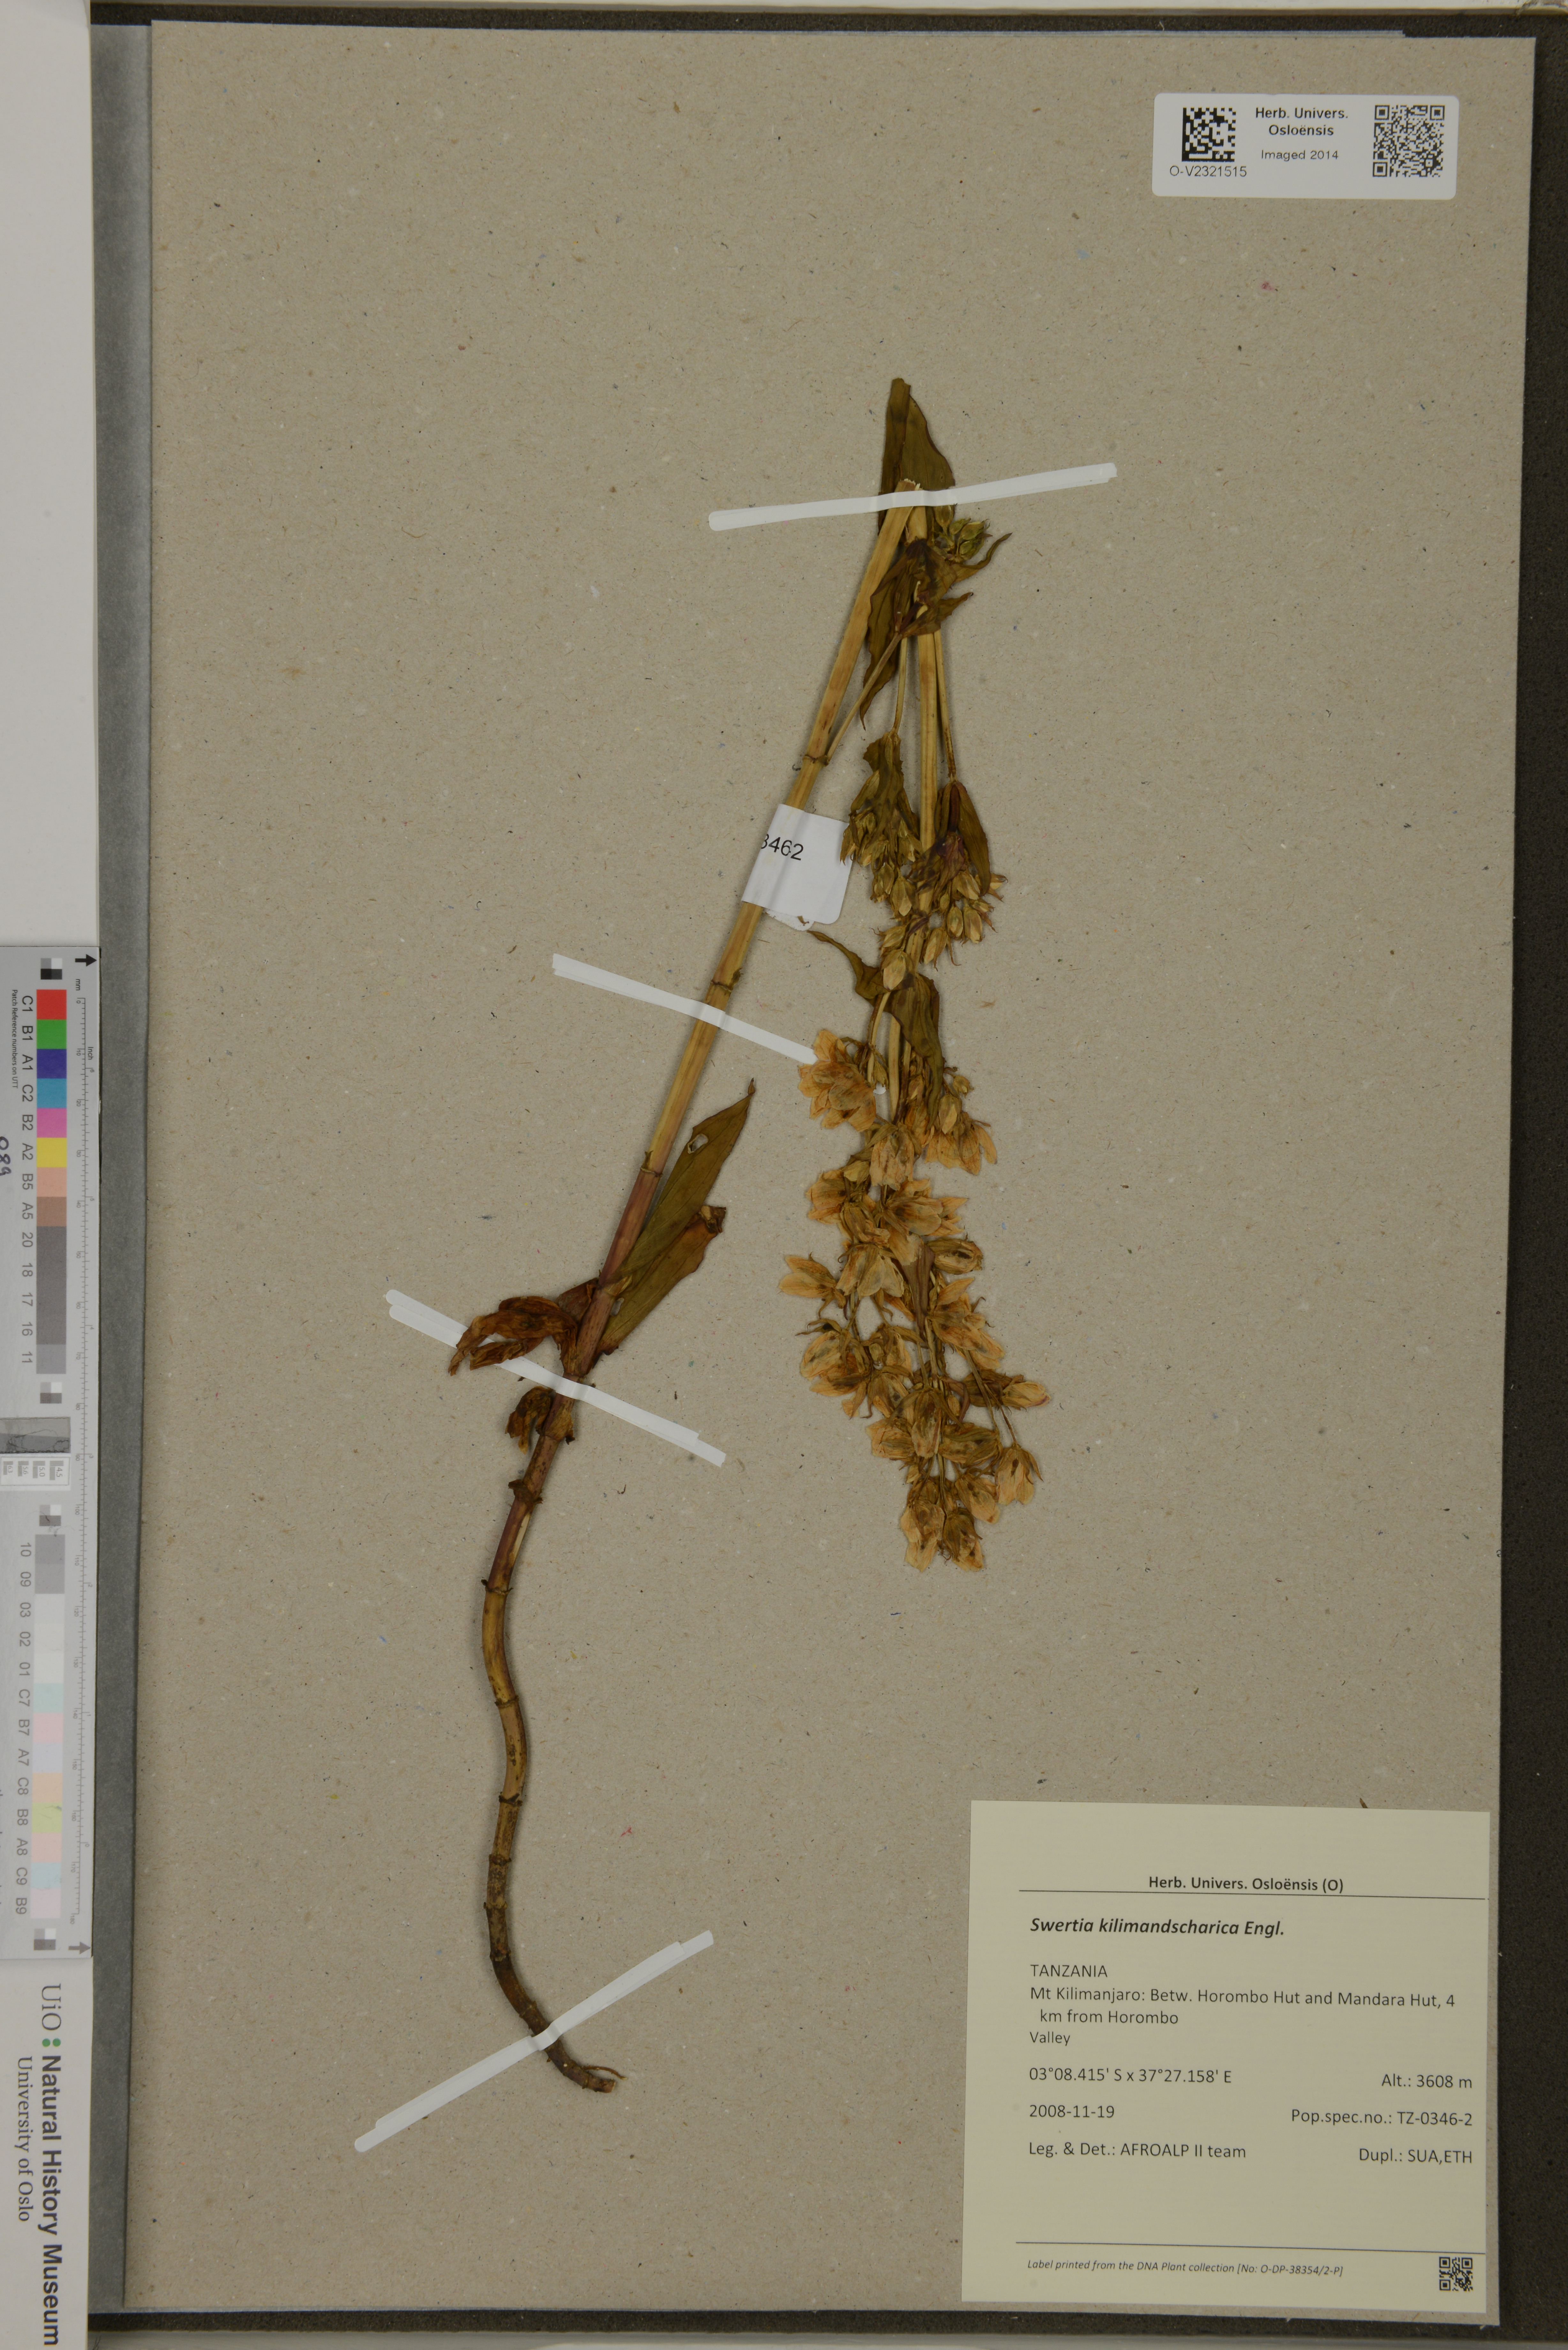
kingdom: Plantae
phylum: Tracheophyta
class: Magnoliopsida
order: Gentianales
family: Gentianaceae
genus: Swertia
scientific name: Swertia kilimandscharica
